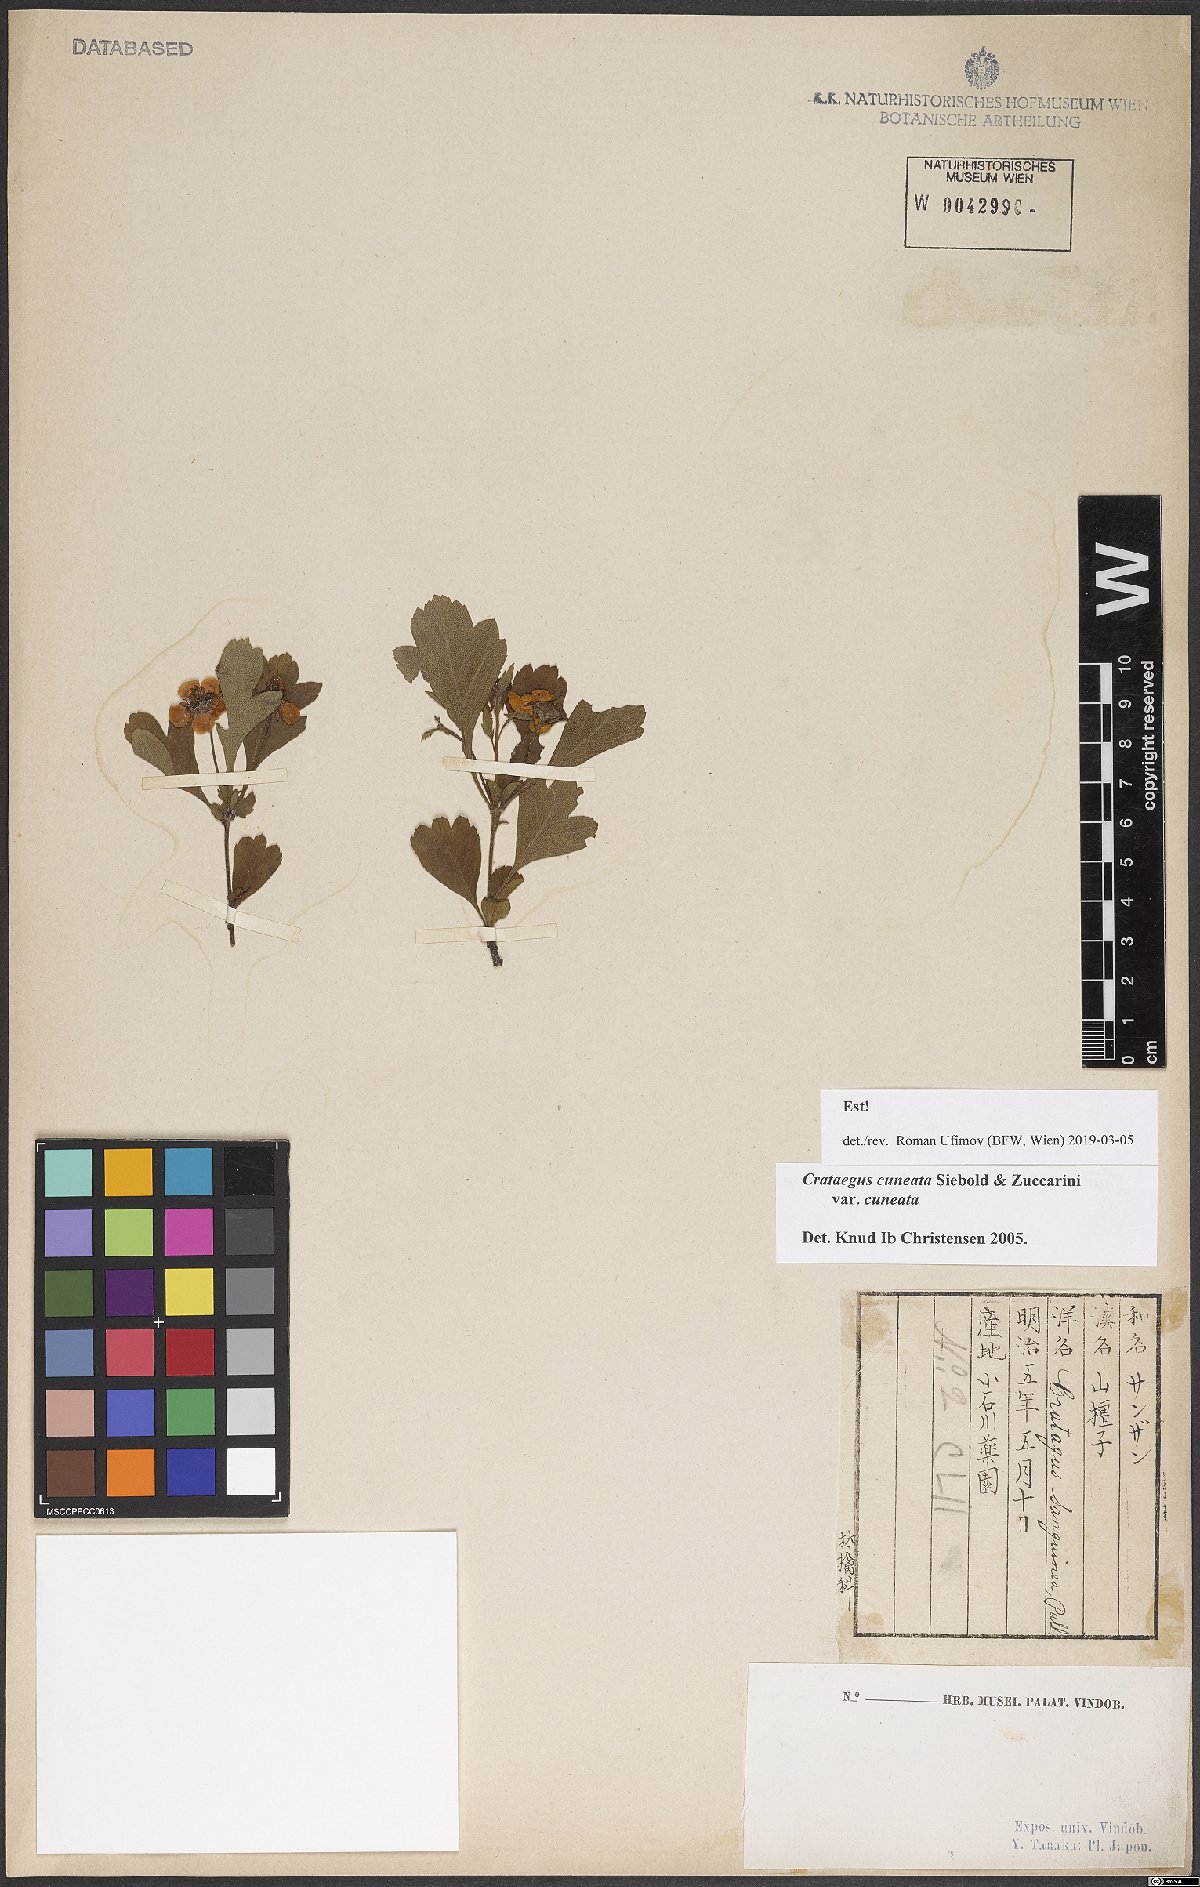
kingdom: Plantae
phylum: Tracheophyta
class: Magnoliopsida
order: Rosales
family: Rosaceae
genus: Crataegus
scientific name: Crataegus cuneata
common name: Chinese hawthorn
